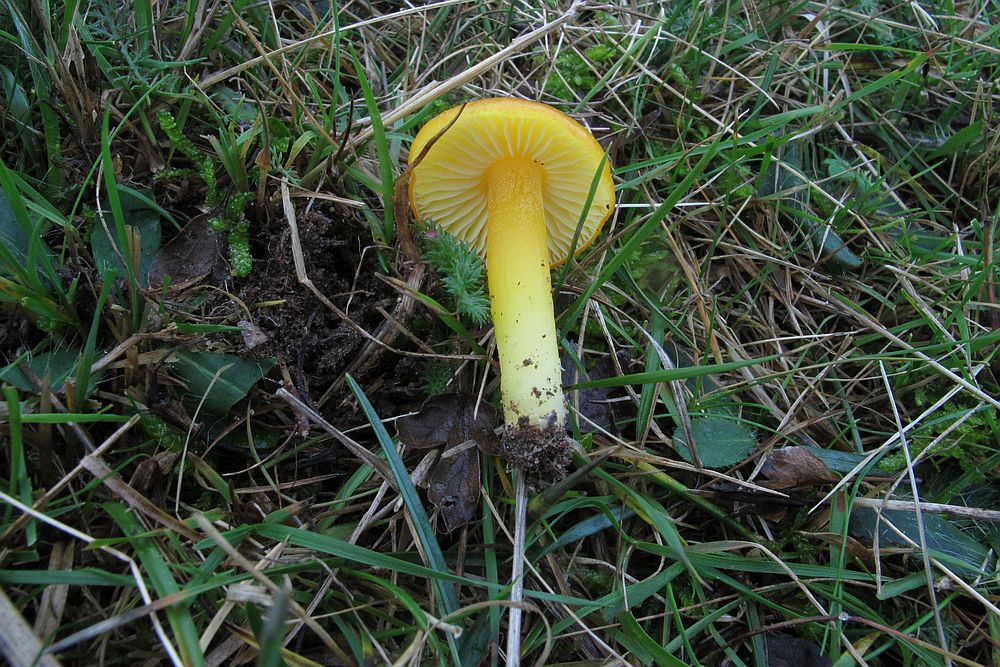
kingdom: Fungi
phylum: Basidiomycota
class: Agaricomycetes
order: Agaricales
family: Hygrophoraceae
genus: Hygrocybe
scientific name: Hygrocybe chlorophana
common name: gul vokshat
